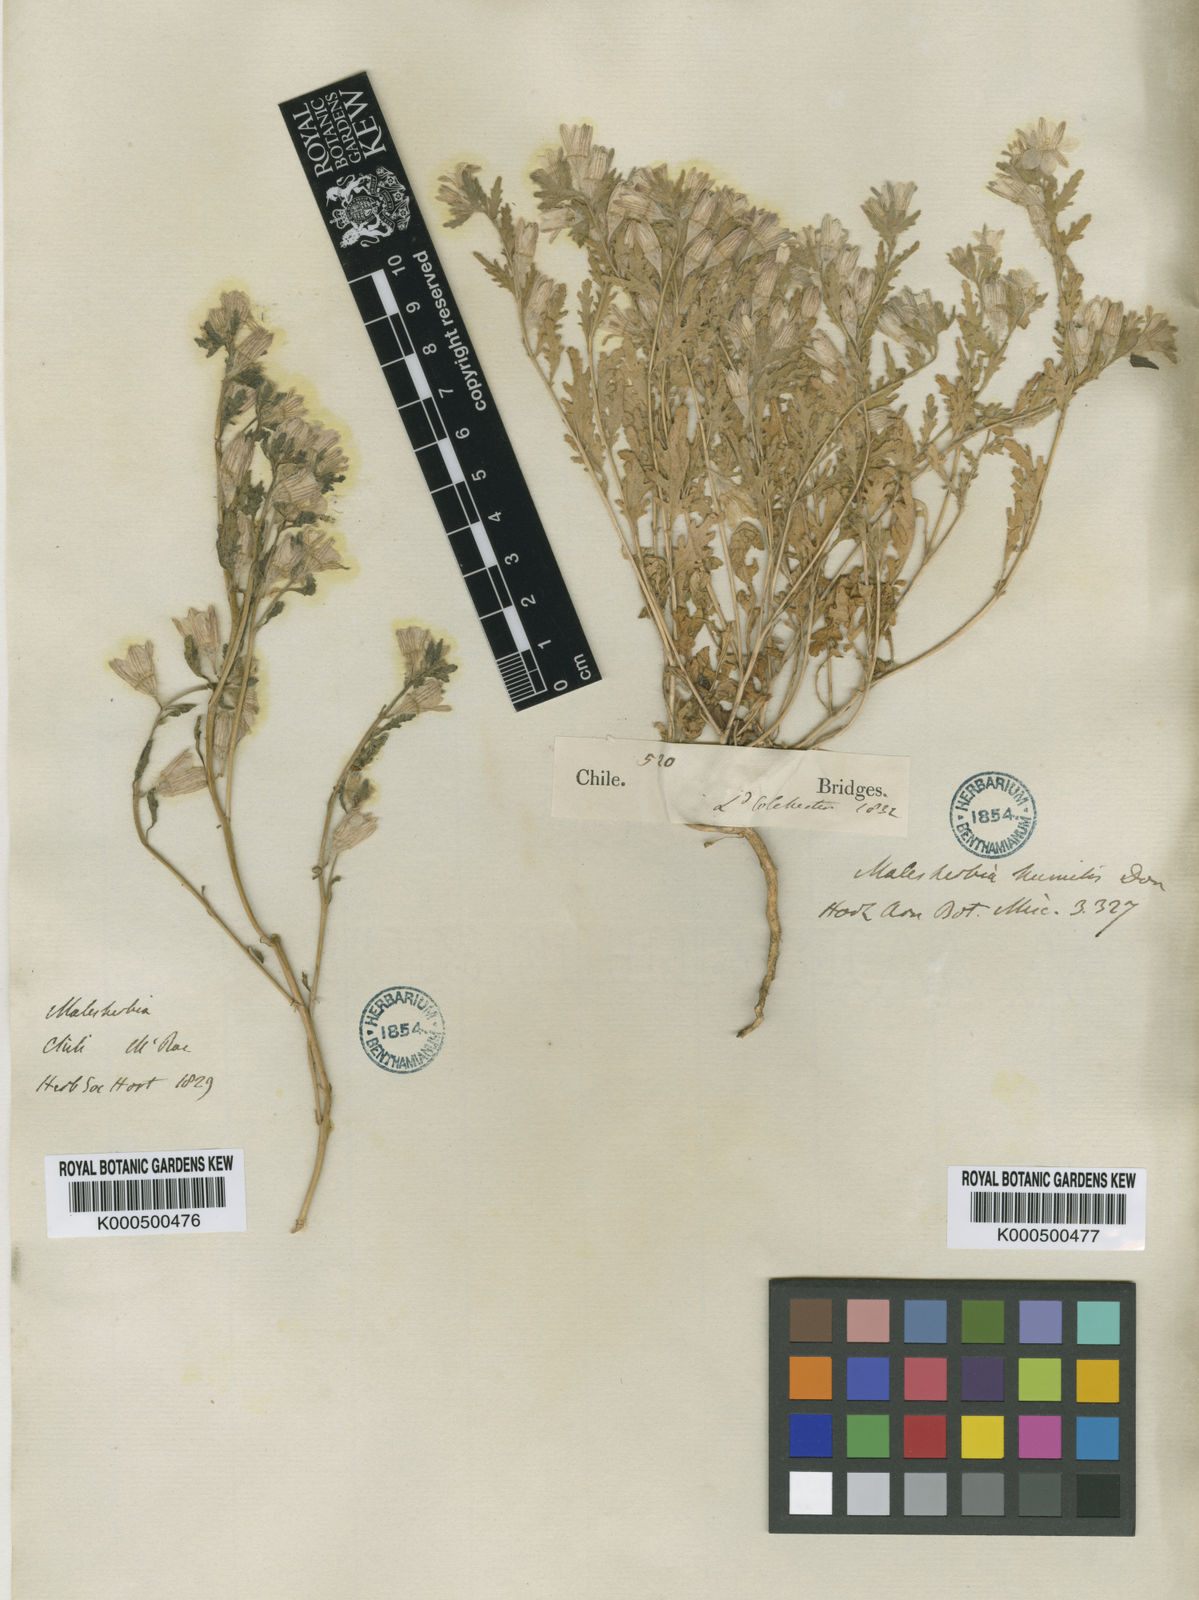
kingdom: Plantae
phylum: Tracheophyta
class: Magnoliopsida
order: Malpighiales
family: Malesherbiaceae
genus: Malesherbia
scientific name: Malesherbia
